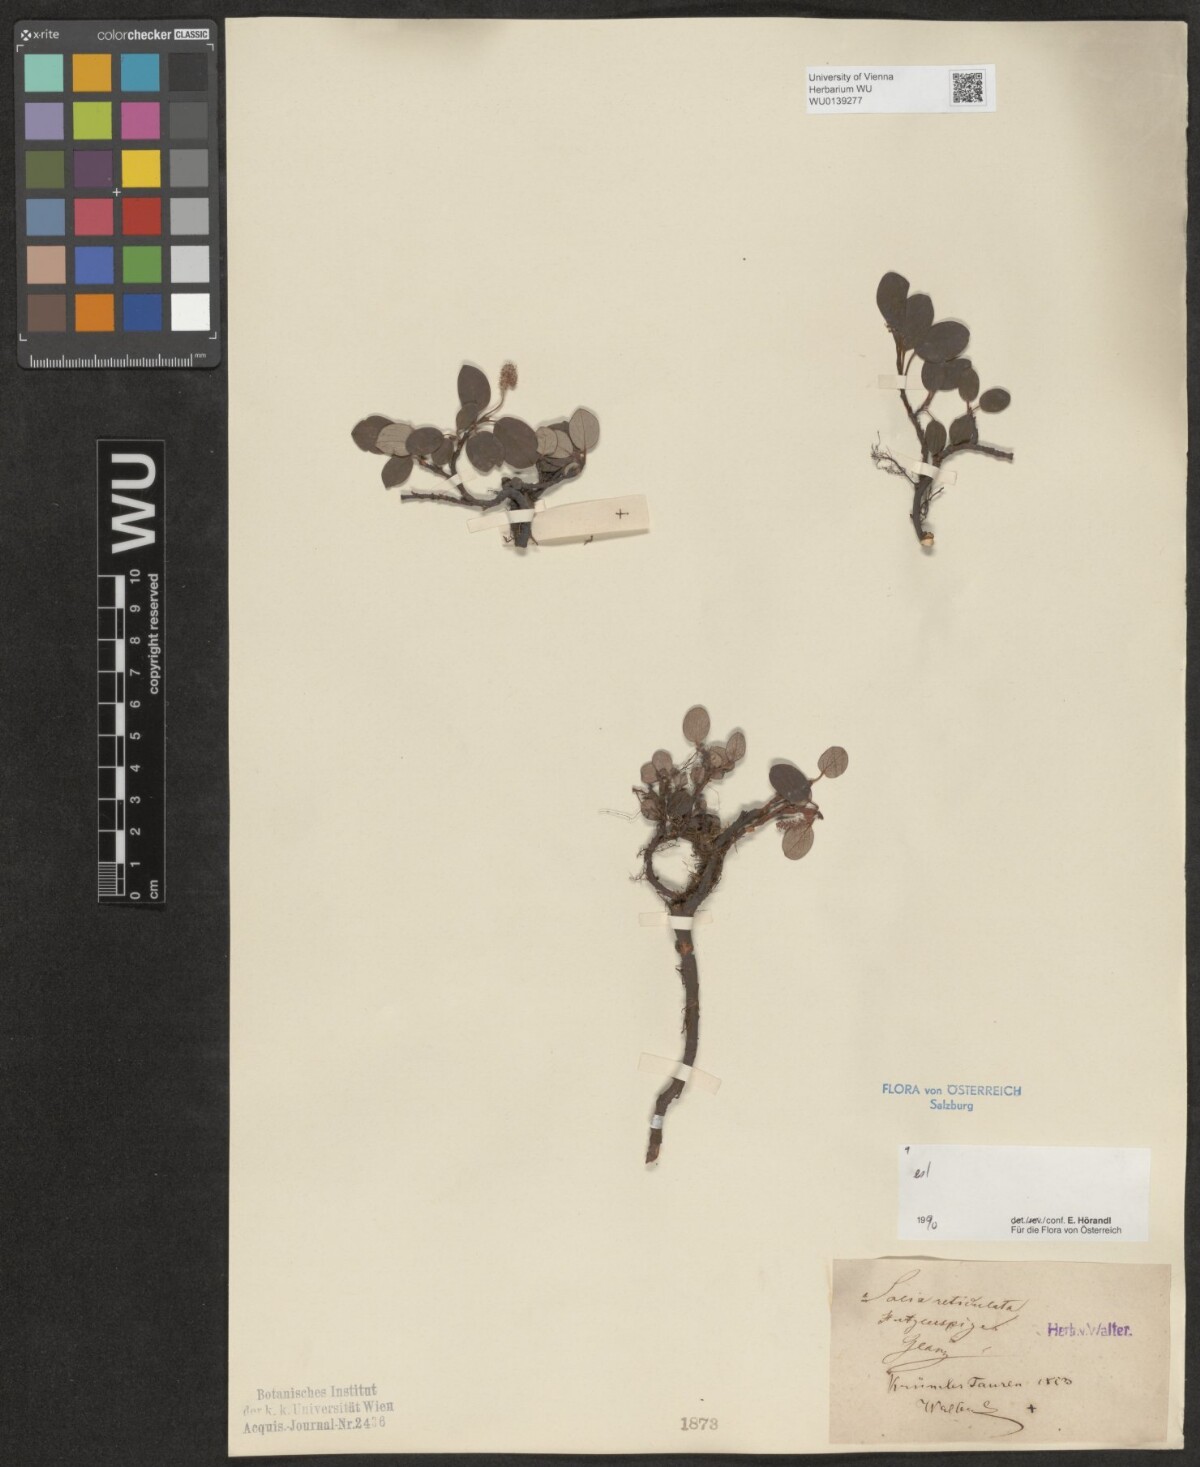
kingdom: Plantae
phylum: Tracheophyta
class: Magnoliopsida
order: Malpighiales
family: Salicaceae
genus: Salix
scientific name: Salix reticulata
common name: Net-leaved willow
